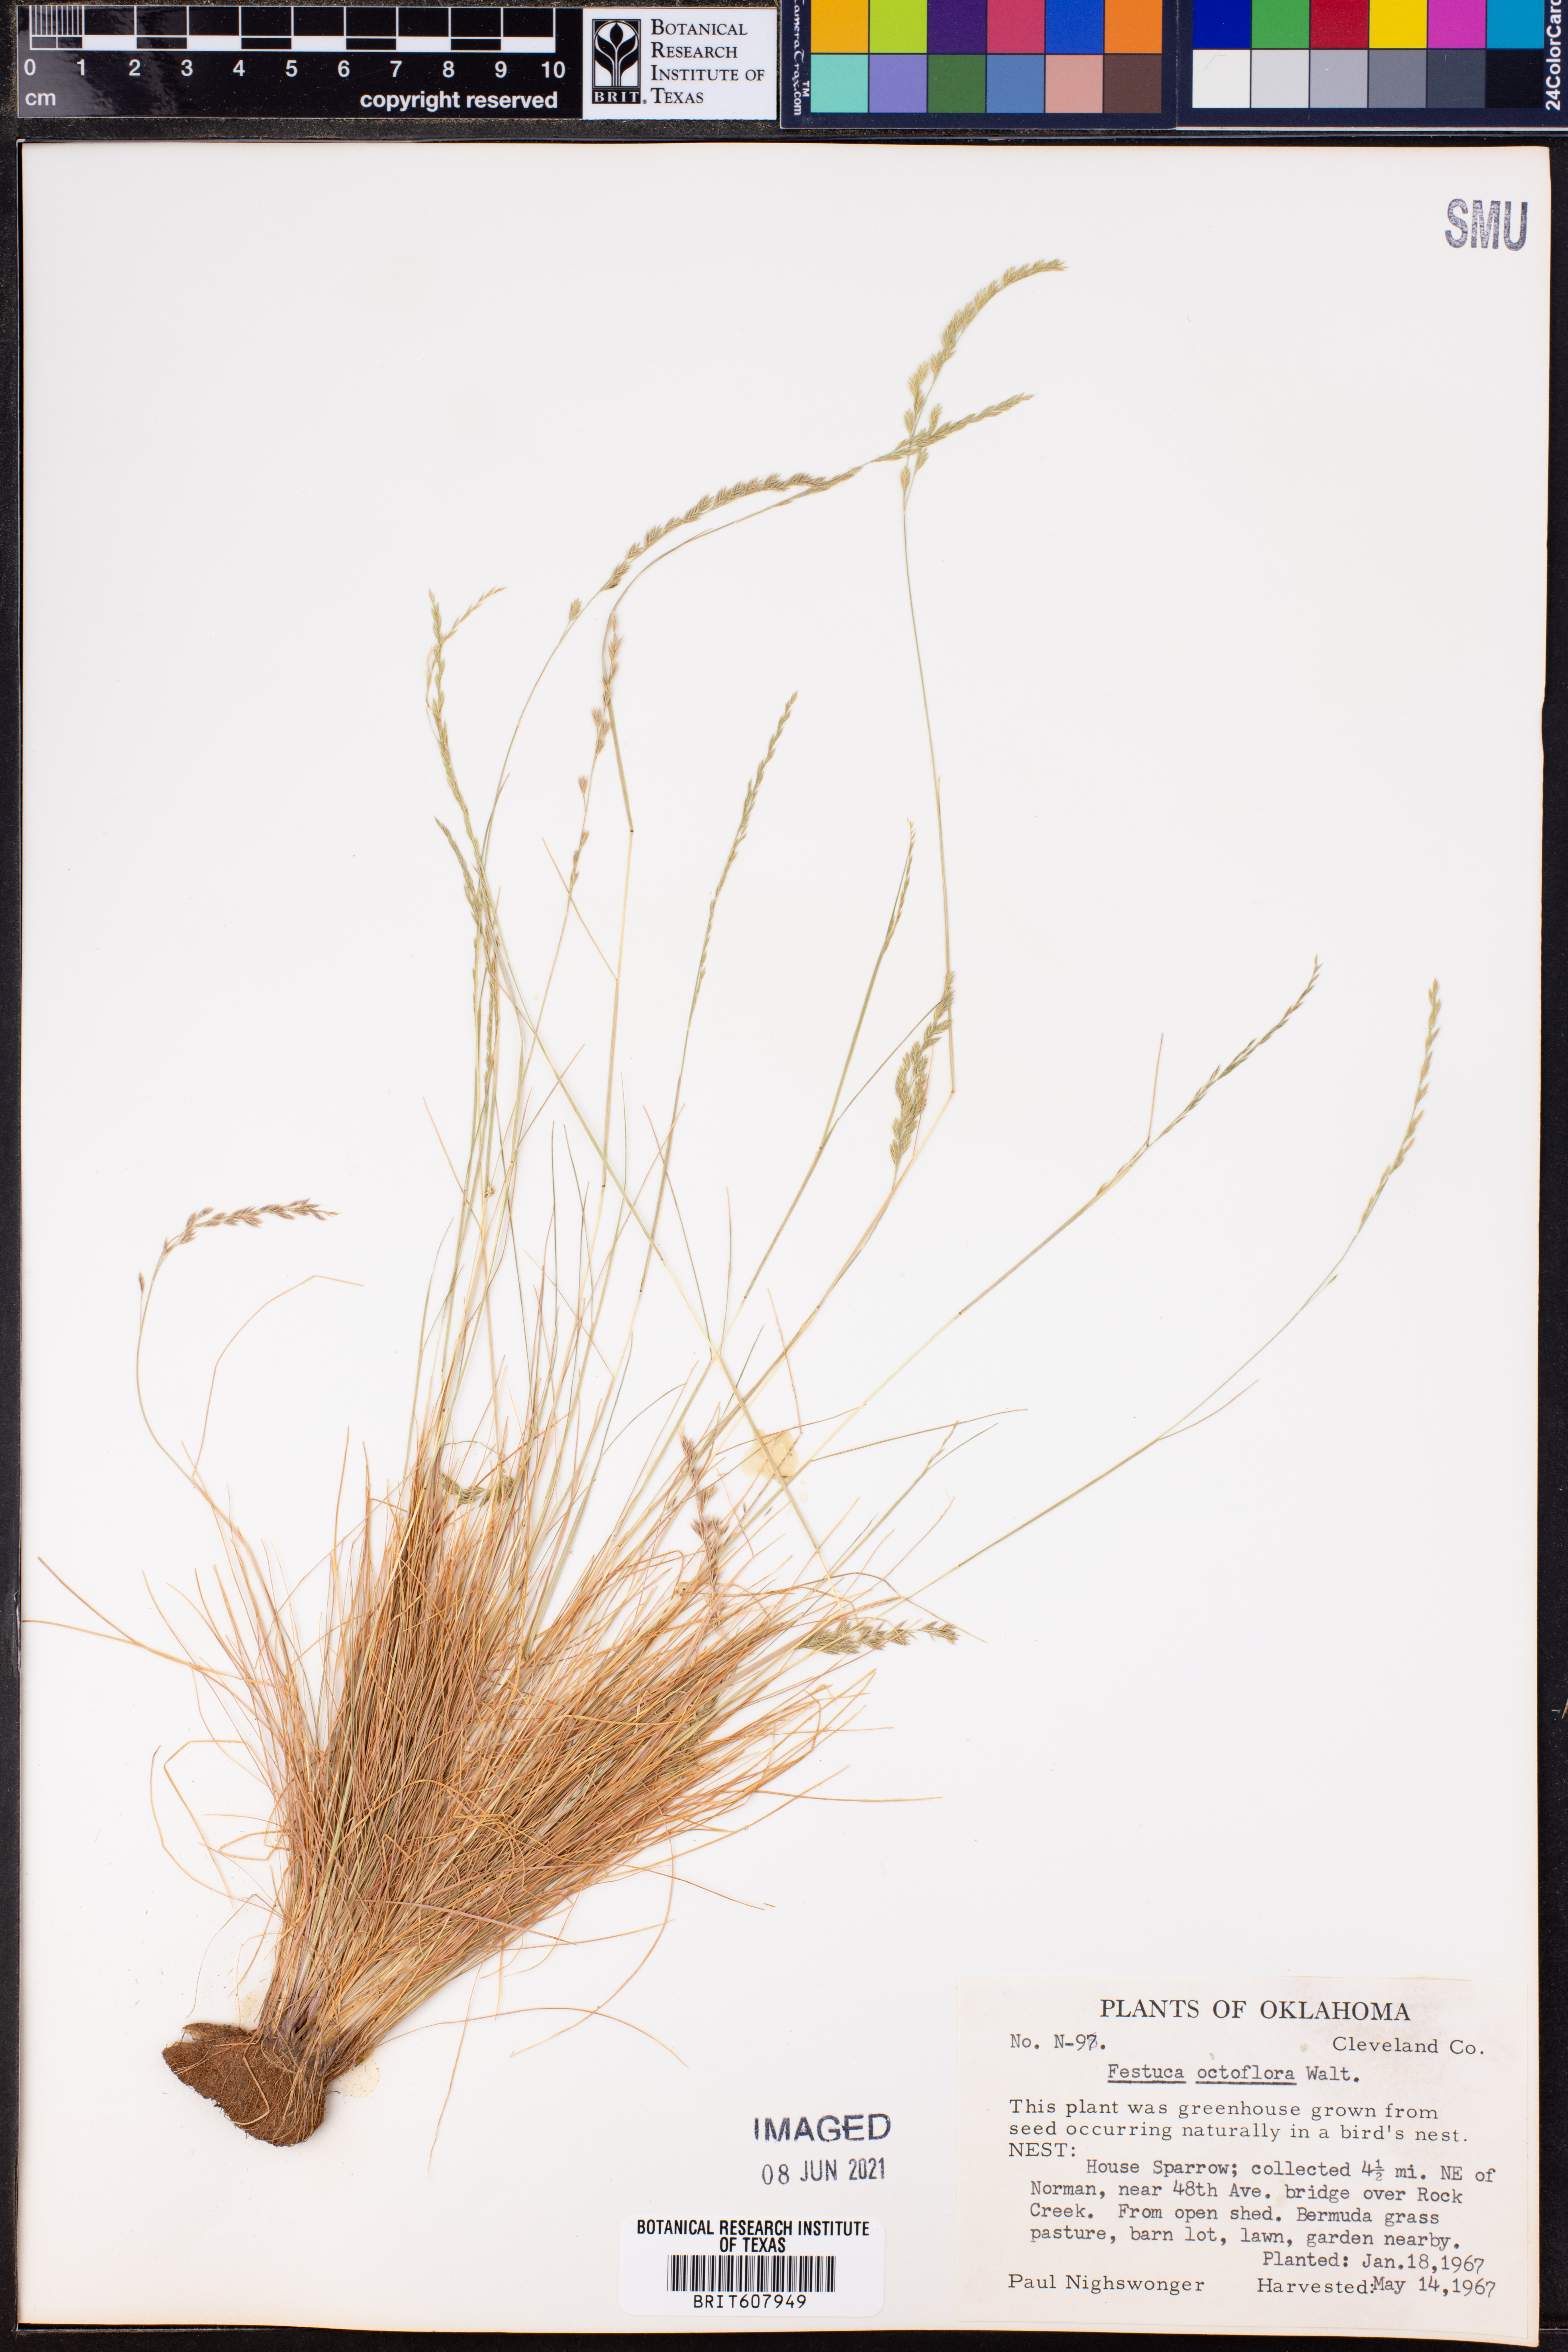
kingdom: Plantae
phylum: Tracheophyta
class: Liliopsida
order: Poales
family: Poaceae
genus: Festuca
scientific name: Festuca octoflora
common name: Sixweeks grass
